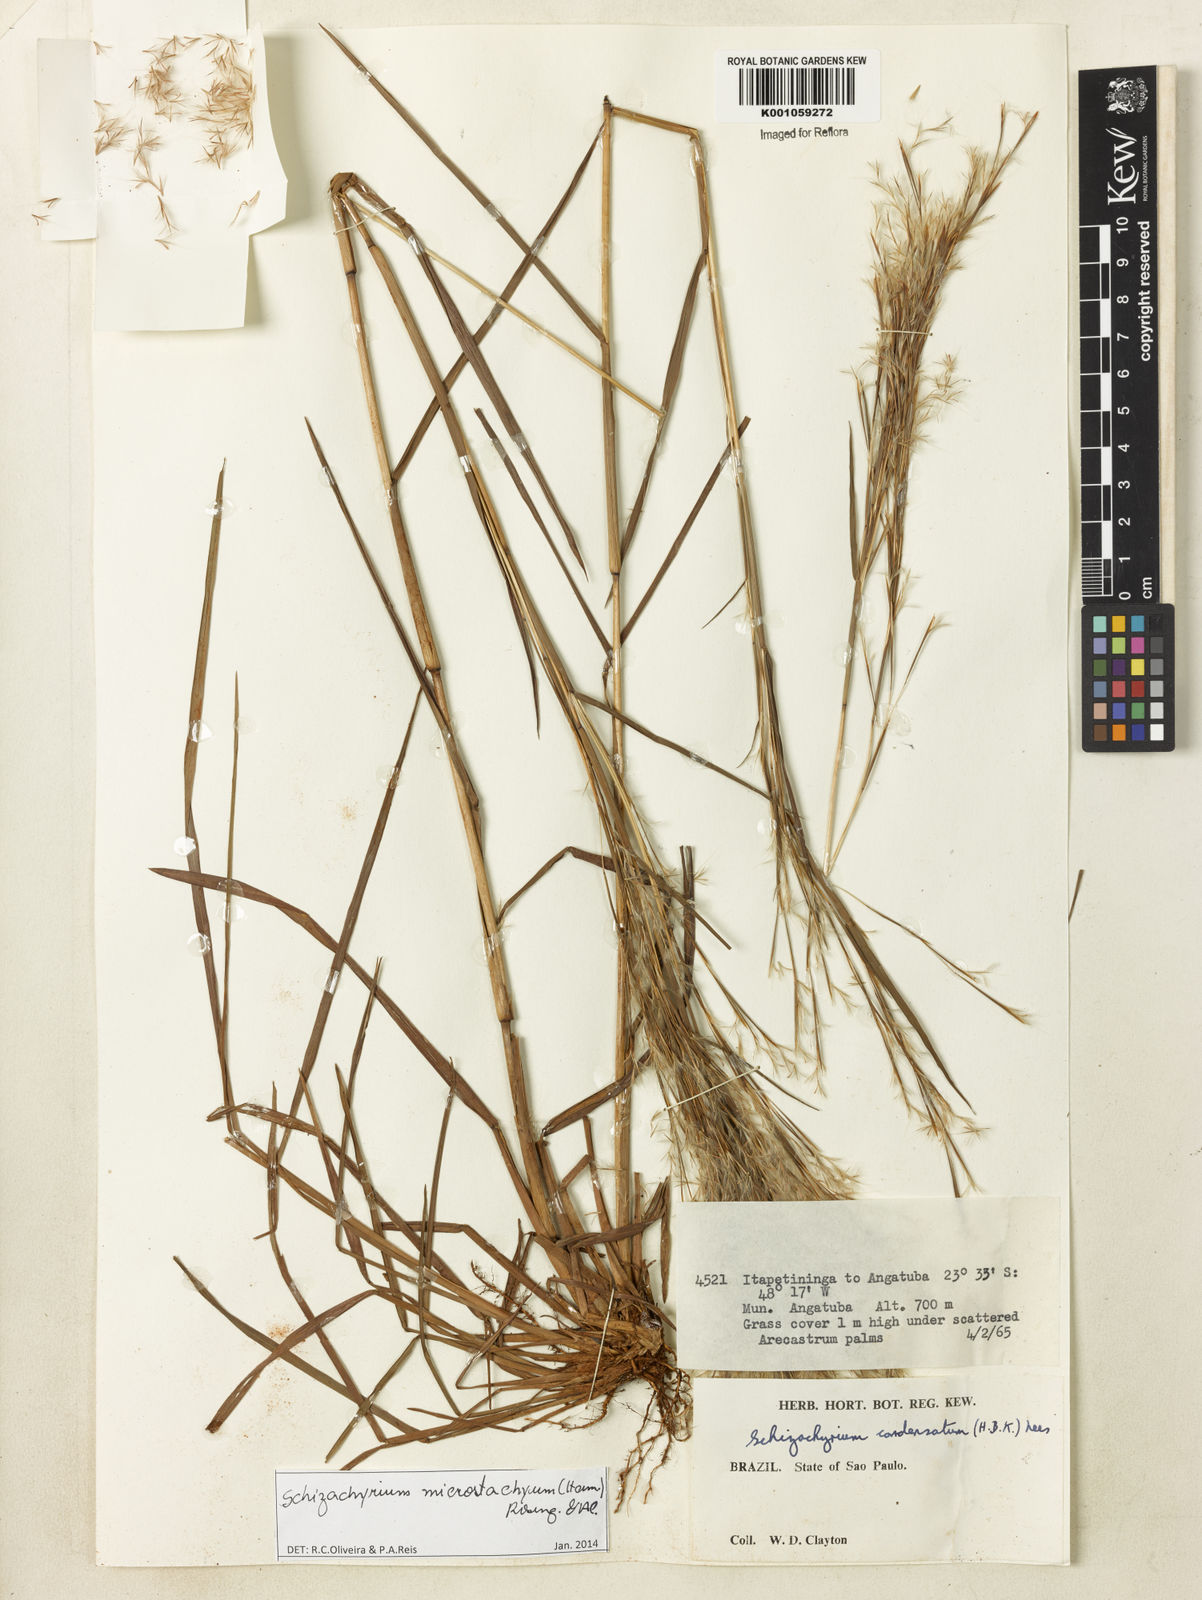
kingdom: Plantae
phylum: Tracheophyta
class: Liliopsida
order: Poales
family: Poaceae
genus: Schizachyrium
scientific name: Schizachyrium
